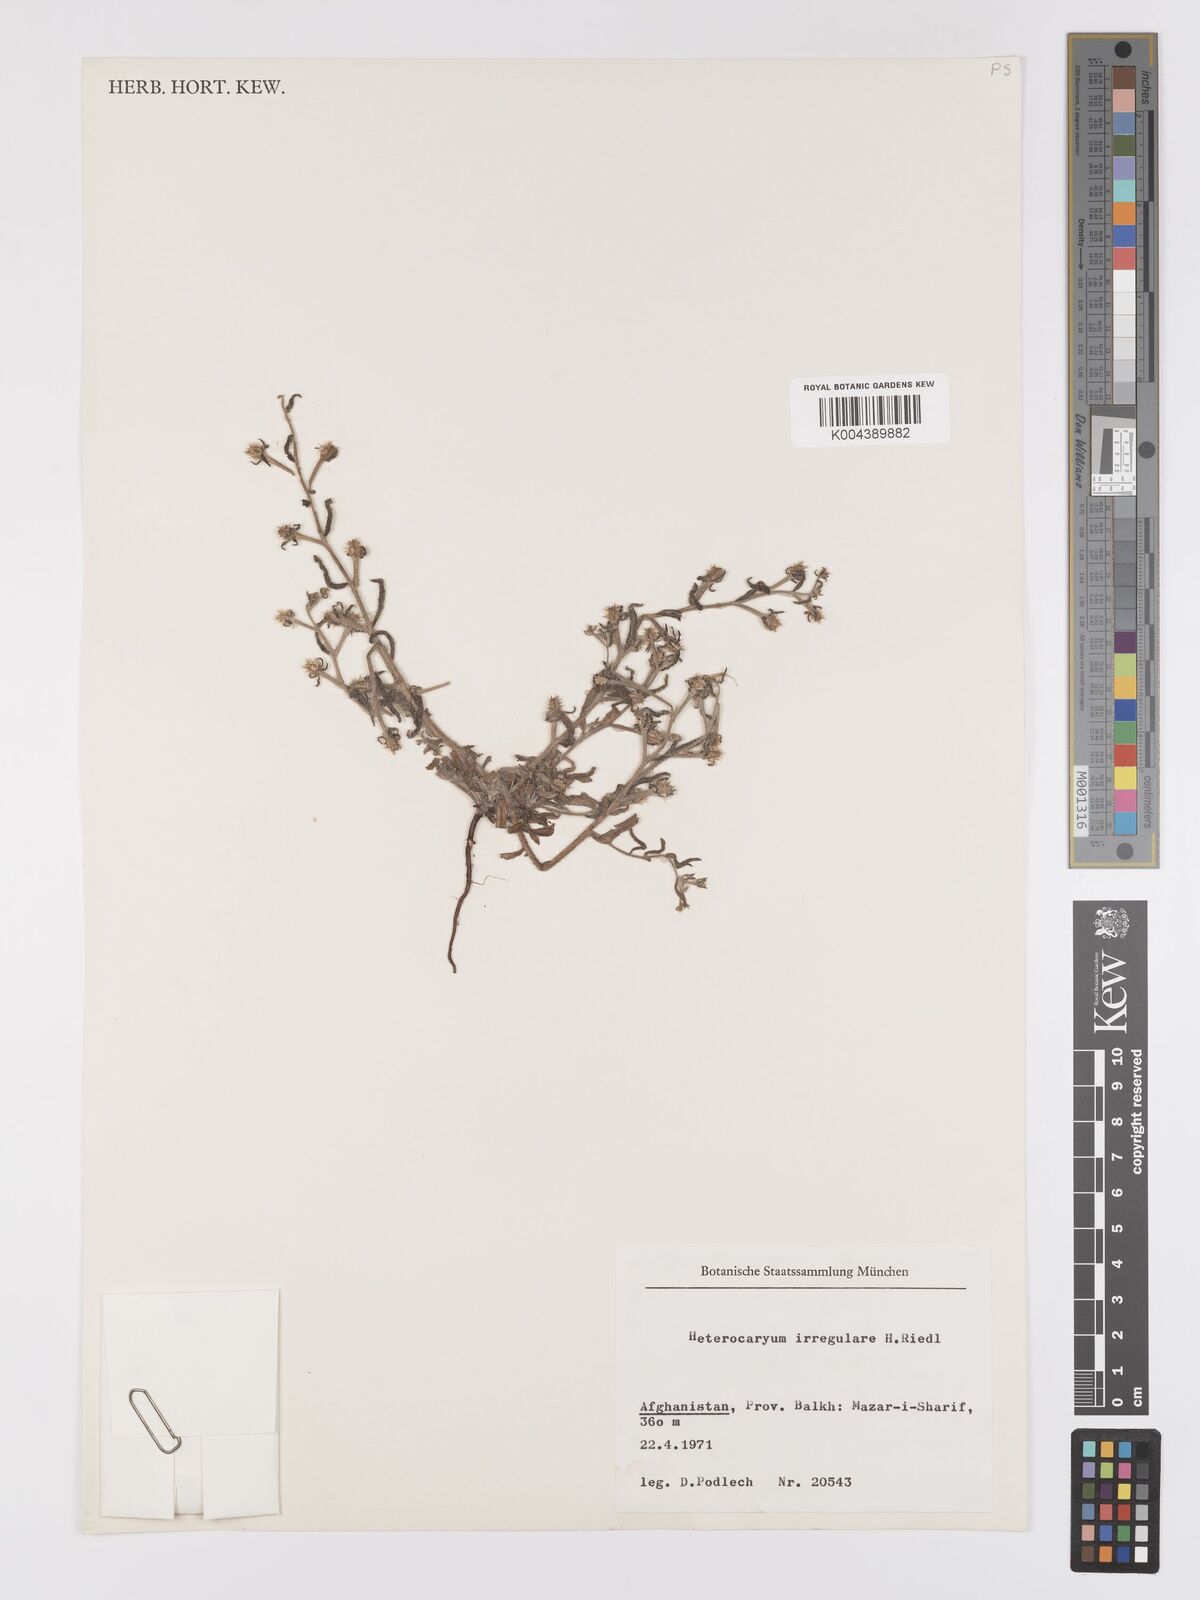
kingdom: Plantae
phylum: Tracheophyta
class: Magnoliopsida
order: Boraginales
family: Boraginaceae
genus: Lappula
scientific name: Lappula
